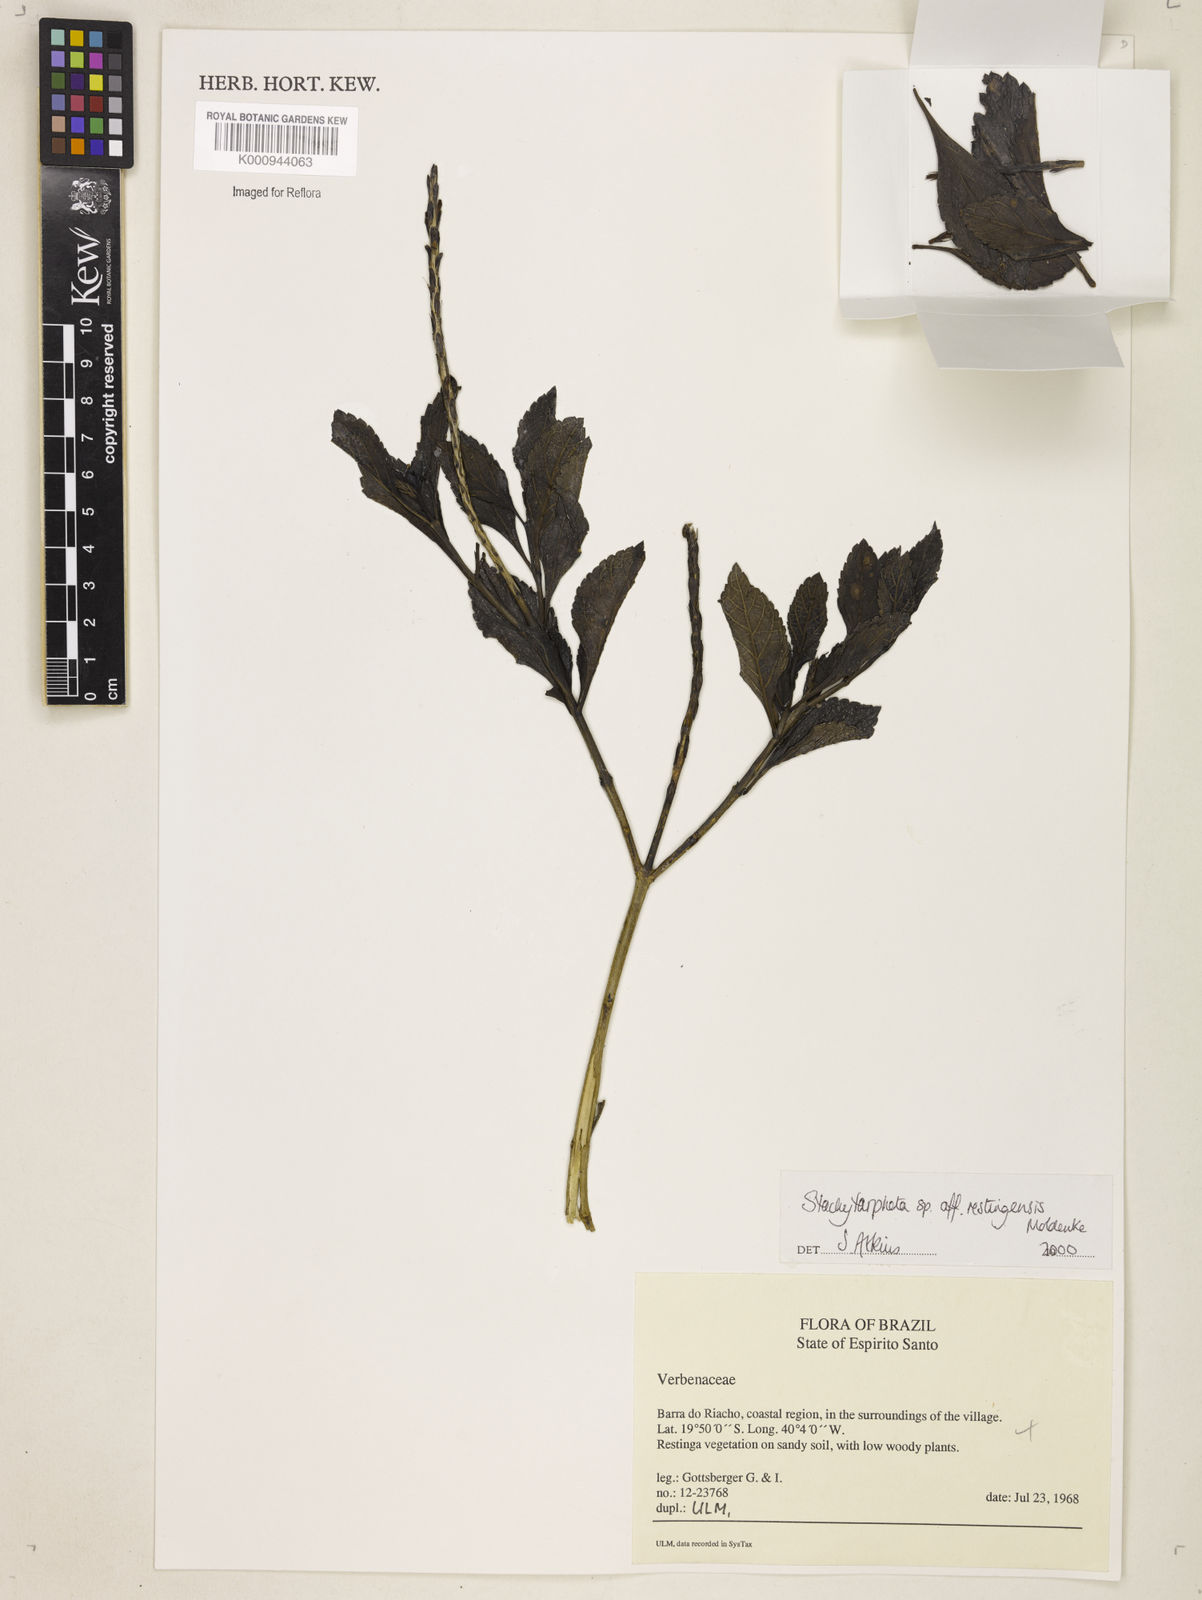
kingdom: Plantae
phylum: Tracheophyta
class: Magnoliopsida
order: Lamiales
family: Verbenaceae
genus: Stachytarpheta
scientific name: Stachytarpheta restingensis
